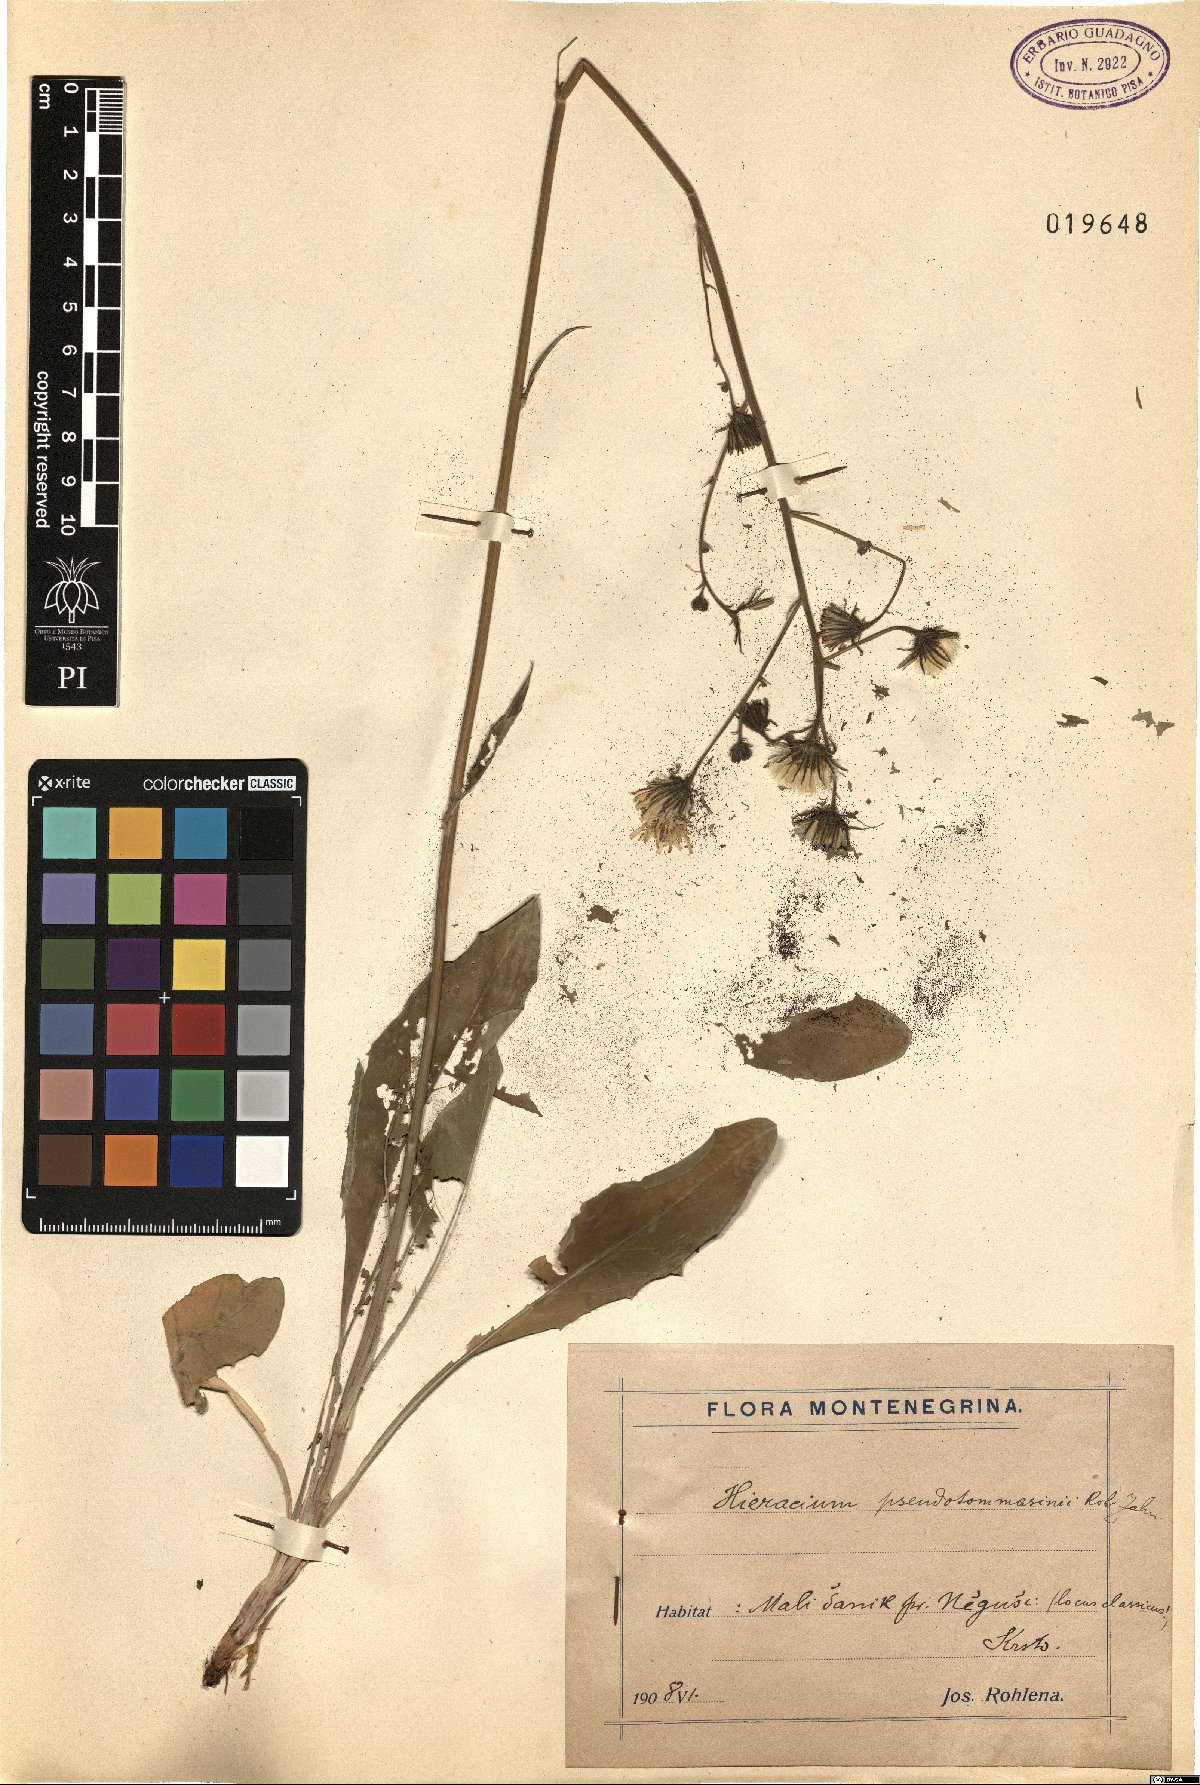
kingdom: Plantae
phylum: Tracheophyta
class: Magnoliopsida
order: Asterales
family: Asteraceae
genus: Hieracium
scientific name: Hieracium cernagorae
